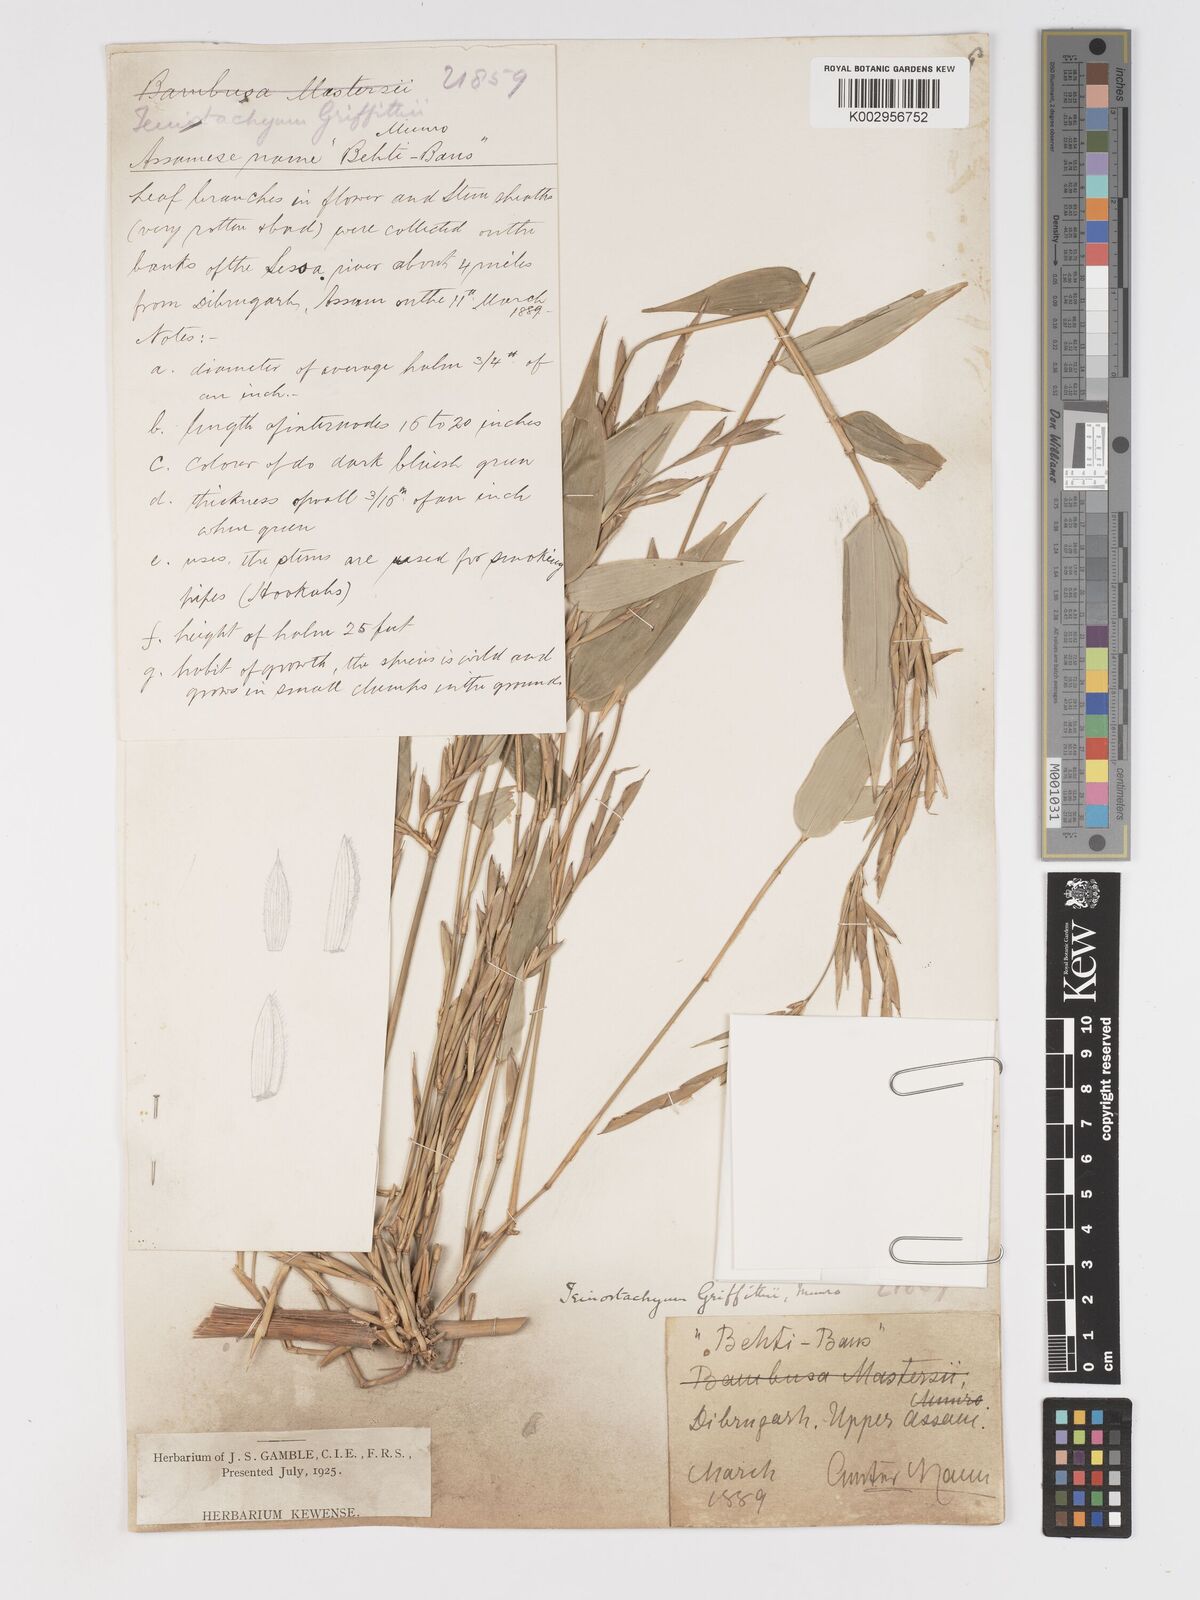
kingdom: Plantae
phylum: Tracheophyta
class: Liliopsida
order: Poales
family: Poaceae
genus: Schizostachyum
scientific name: Schizostachyum griffithii
